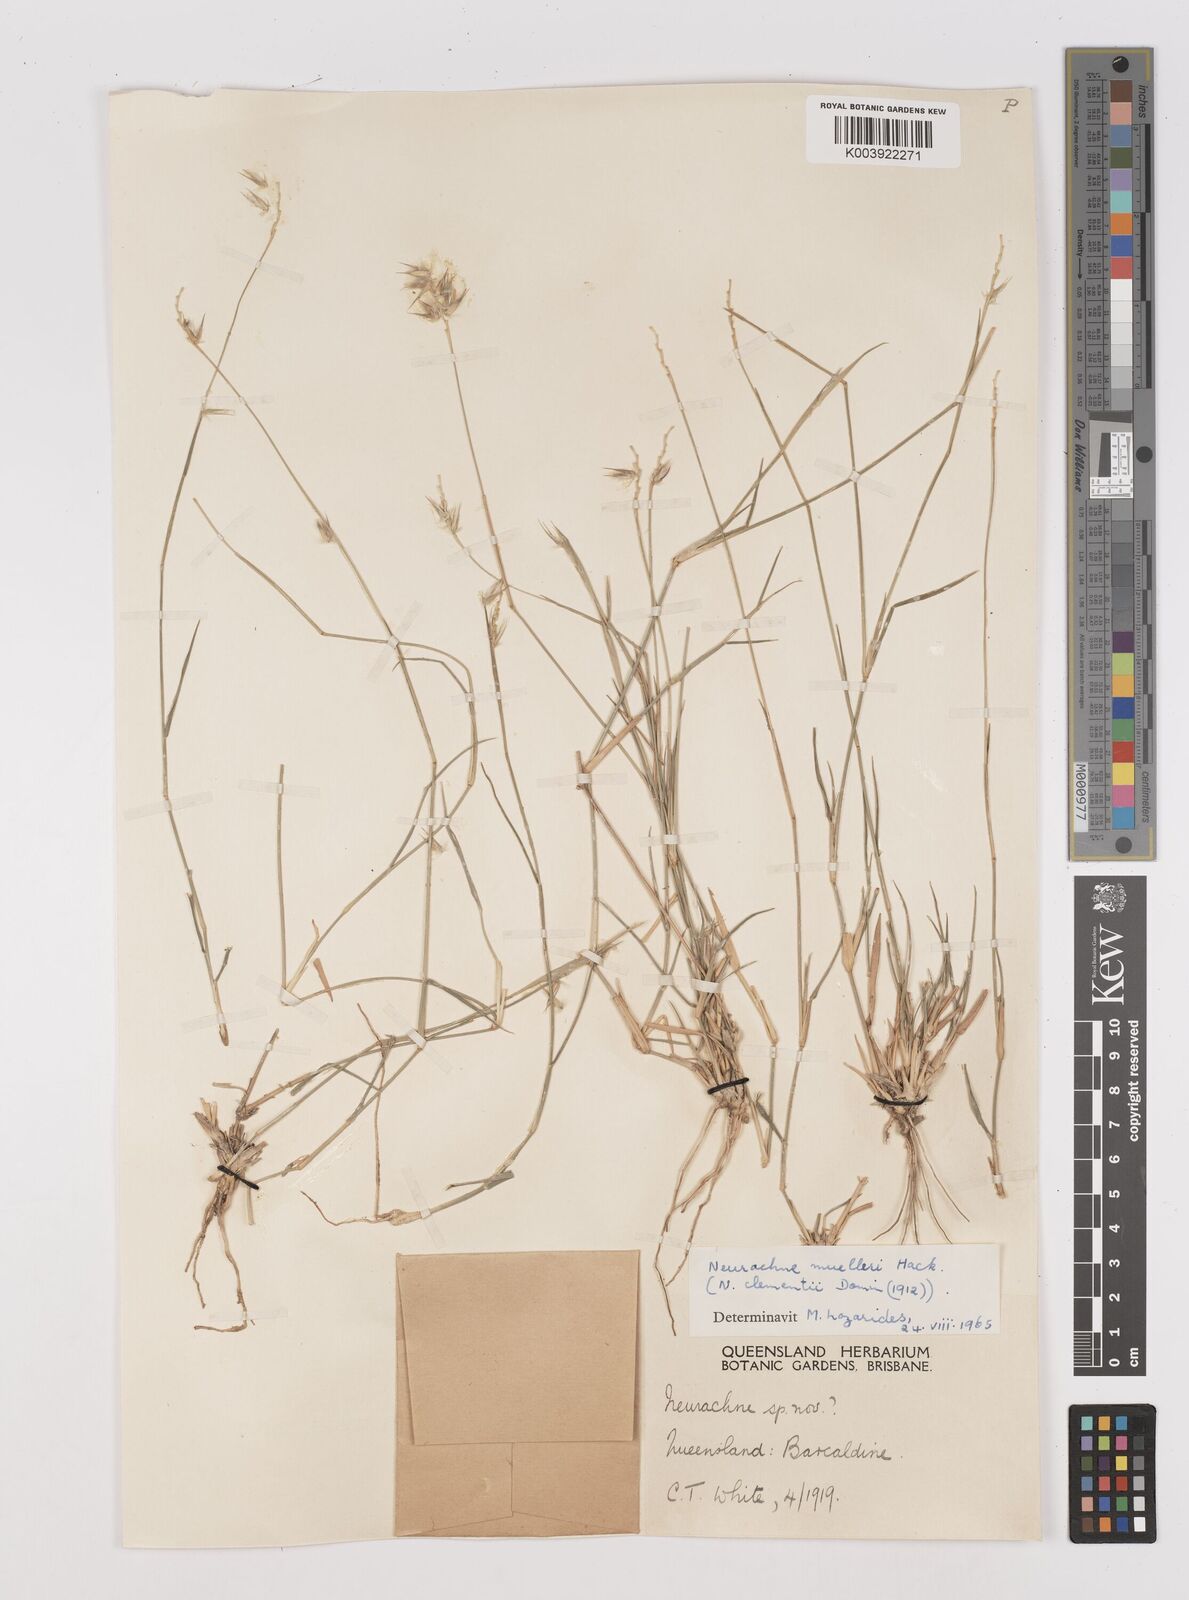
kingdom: Plantae
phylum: Tracheophyta
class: Liliopsida
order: Poales
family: Poaceae
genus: Neurachne
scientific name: Neurachne muelleri
